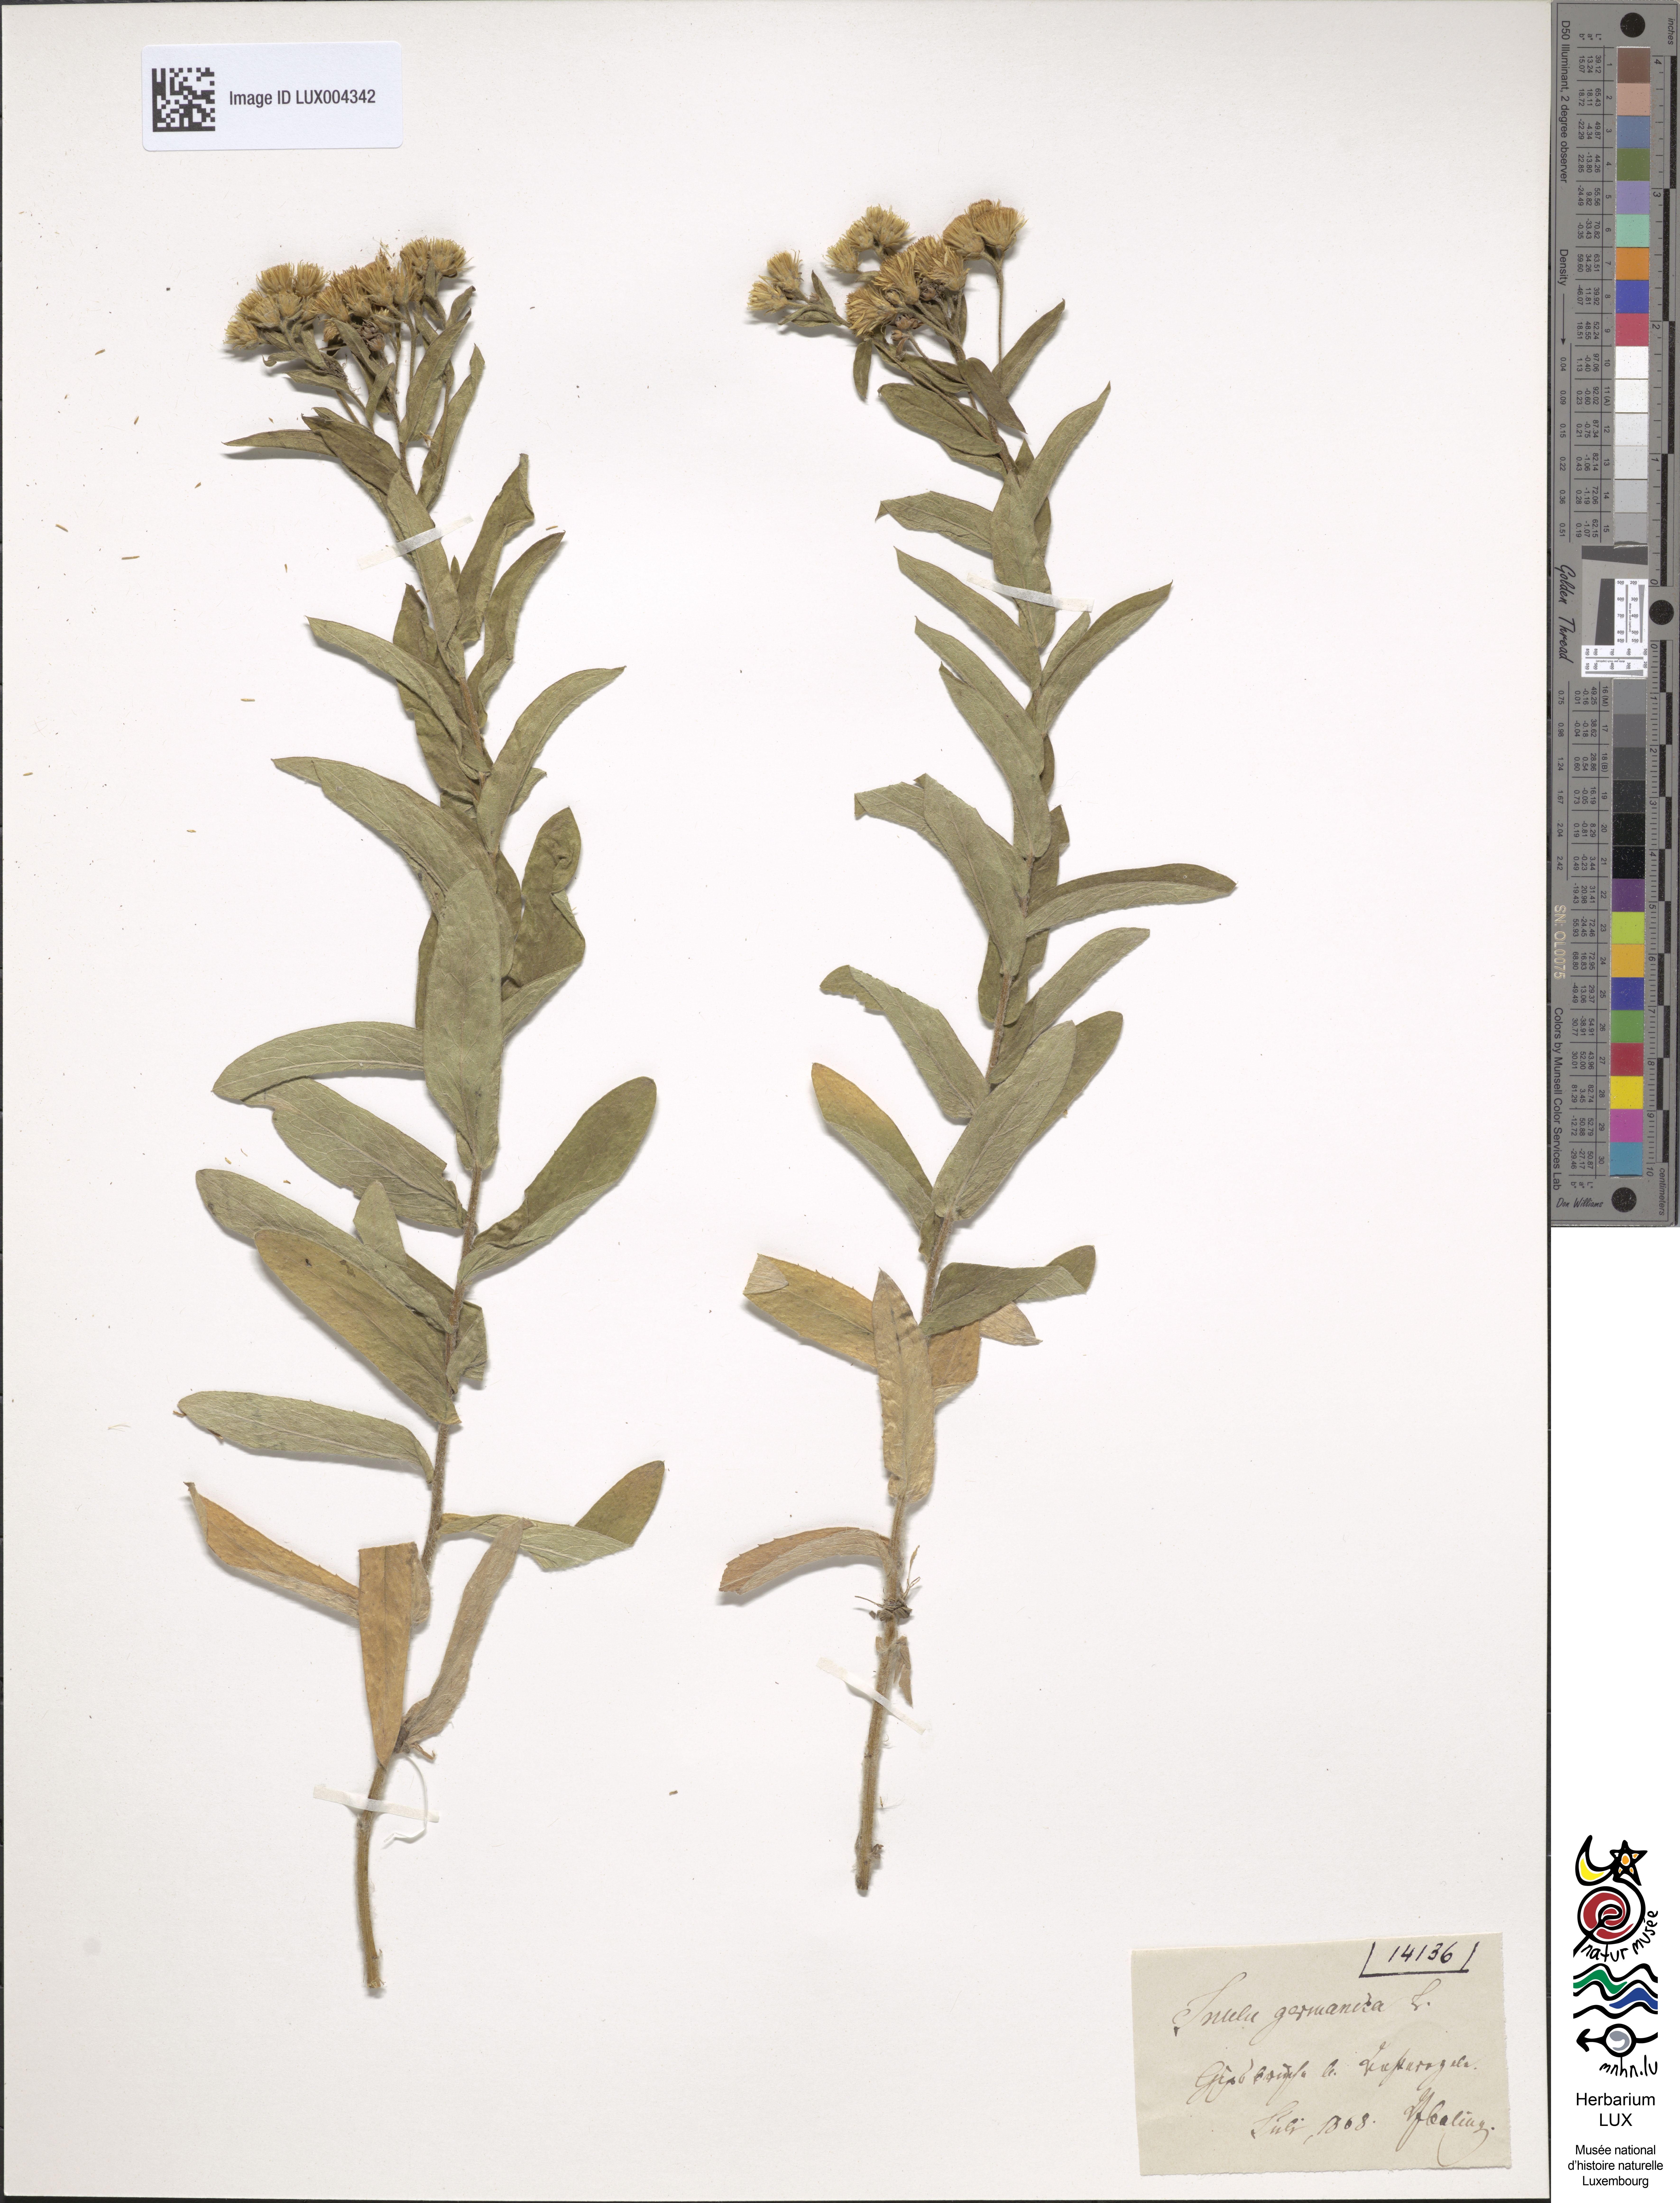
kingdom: Plantae
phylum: Tracheophyta
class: Magnoliopsida
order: Asterales
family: Asteraceae
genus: Pentanema
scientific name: Pentanema germanicum
